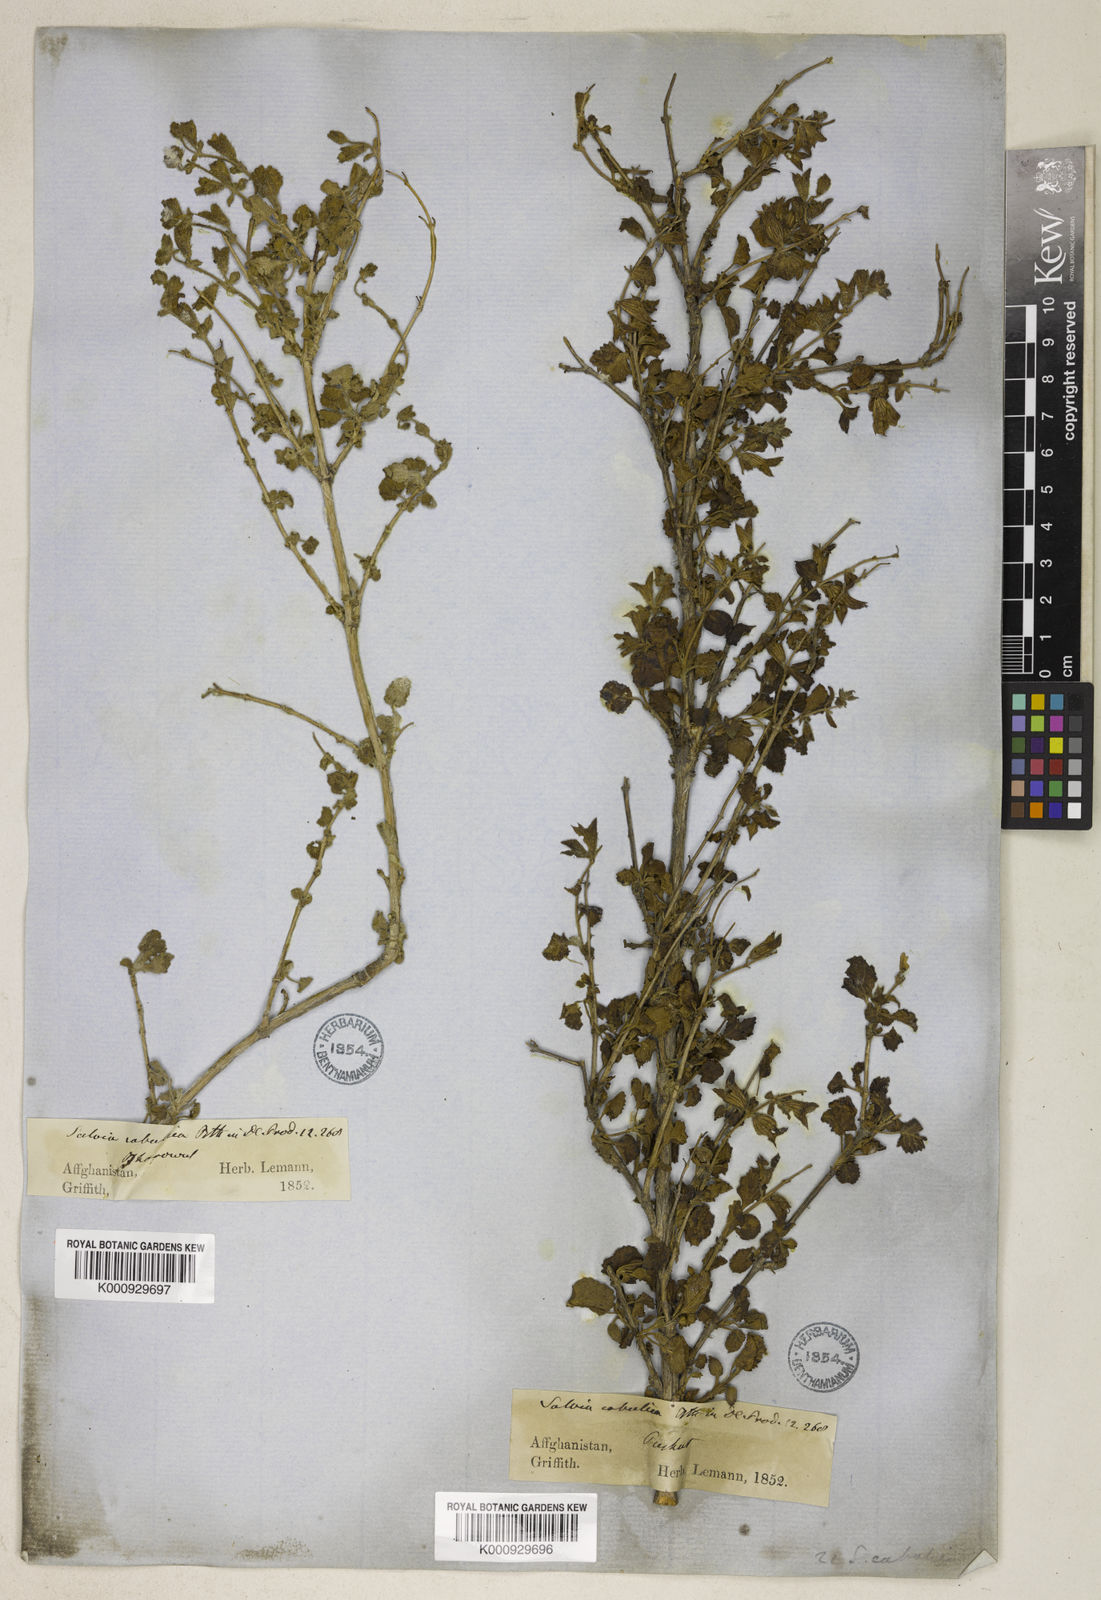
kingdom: Plantae
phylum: Tracheophyta
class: Magnoliopsida
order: Lamiales
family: Lamiaceae
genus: Salvia
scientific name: Salvia cabulica
